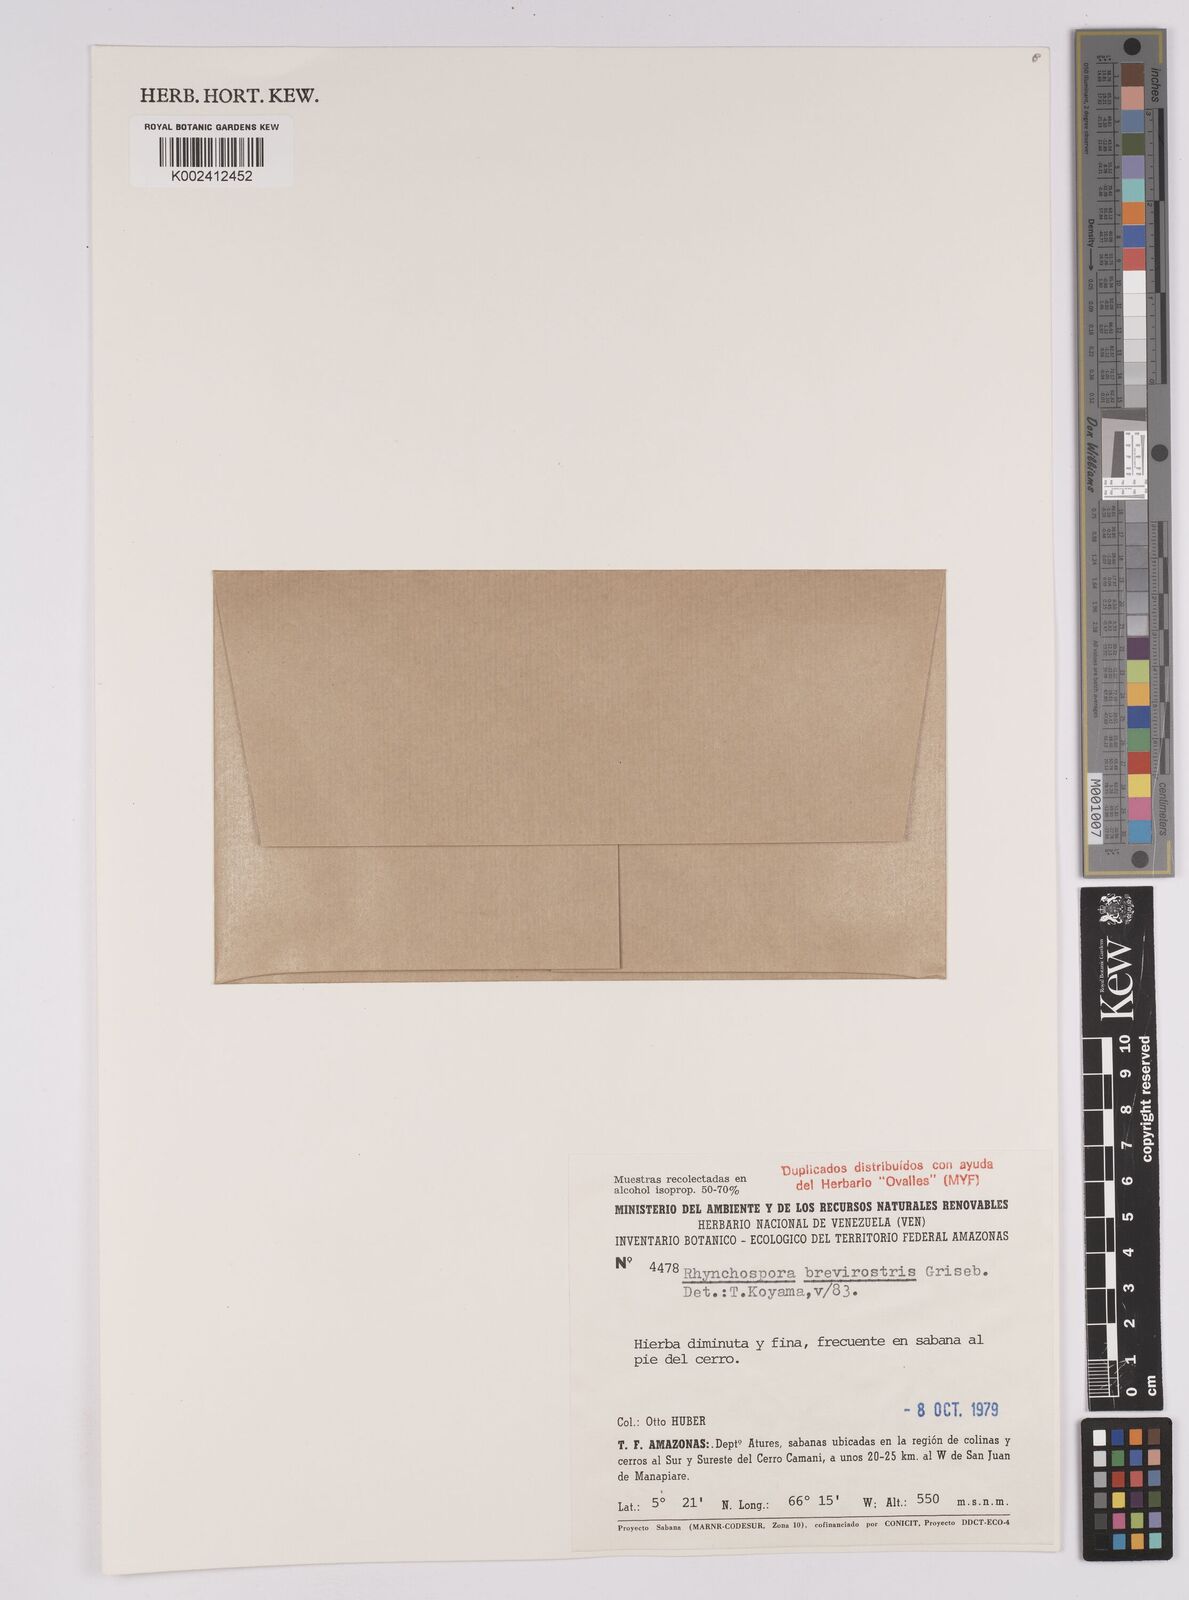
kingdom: Plantae
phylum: Tracheophyta
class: Liliopsida
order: Poales
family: Cyperaceae
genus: Rhynchospora
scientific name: Rhynchospora brevirostris
